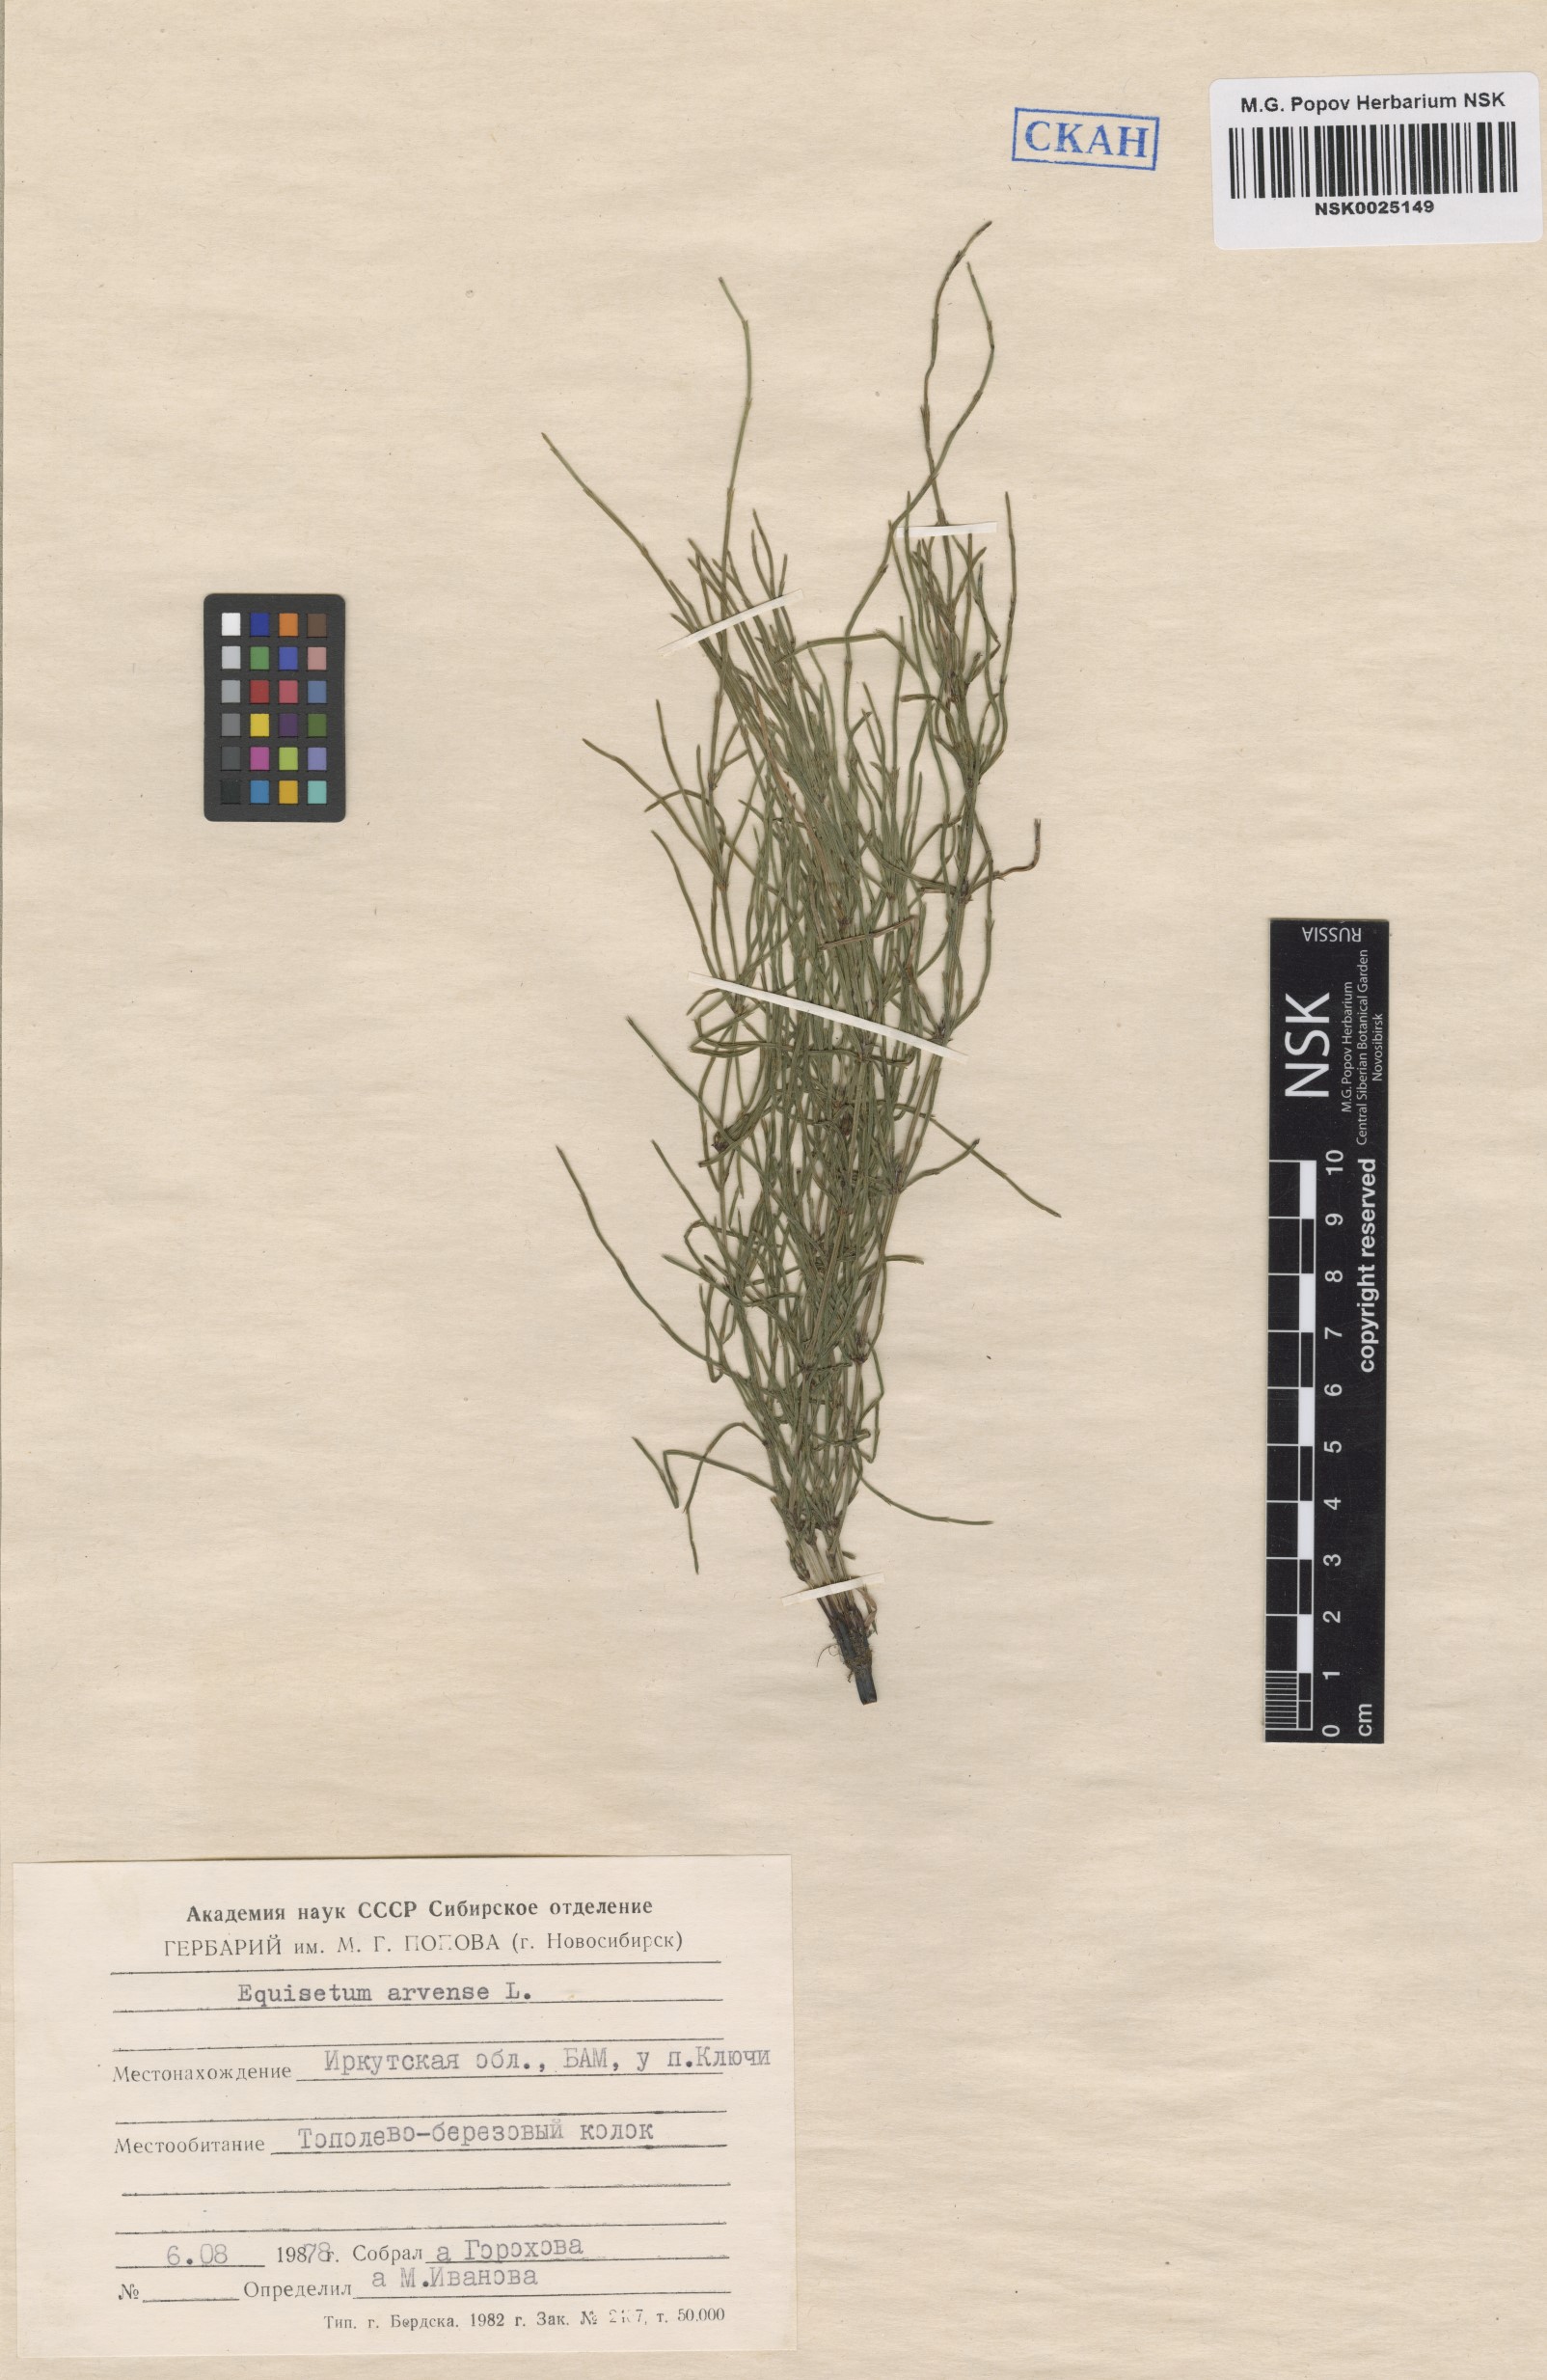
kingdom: Plantae
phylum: Tracheophyta
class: Polypodiopsida
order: Equisetales
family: Equisetaceae
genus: Equisetum
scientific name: Equisetum arvense
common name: Field horsetail
